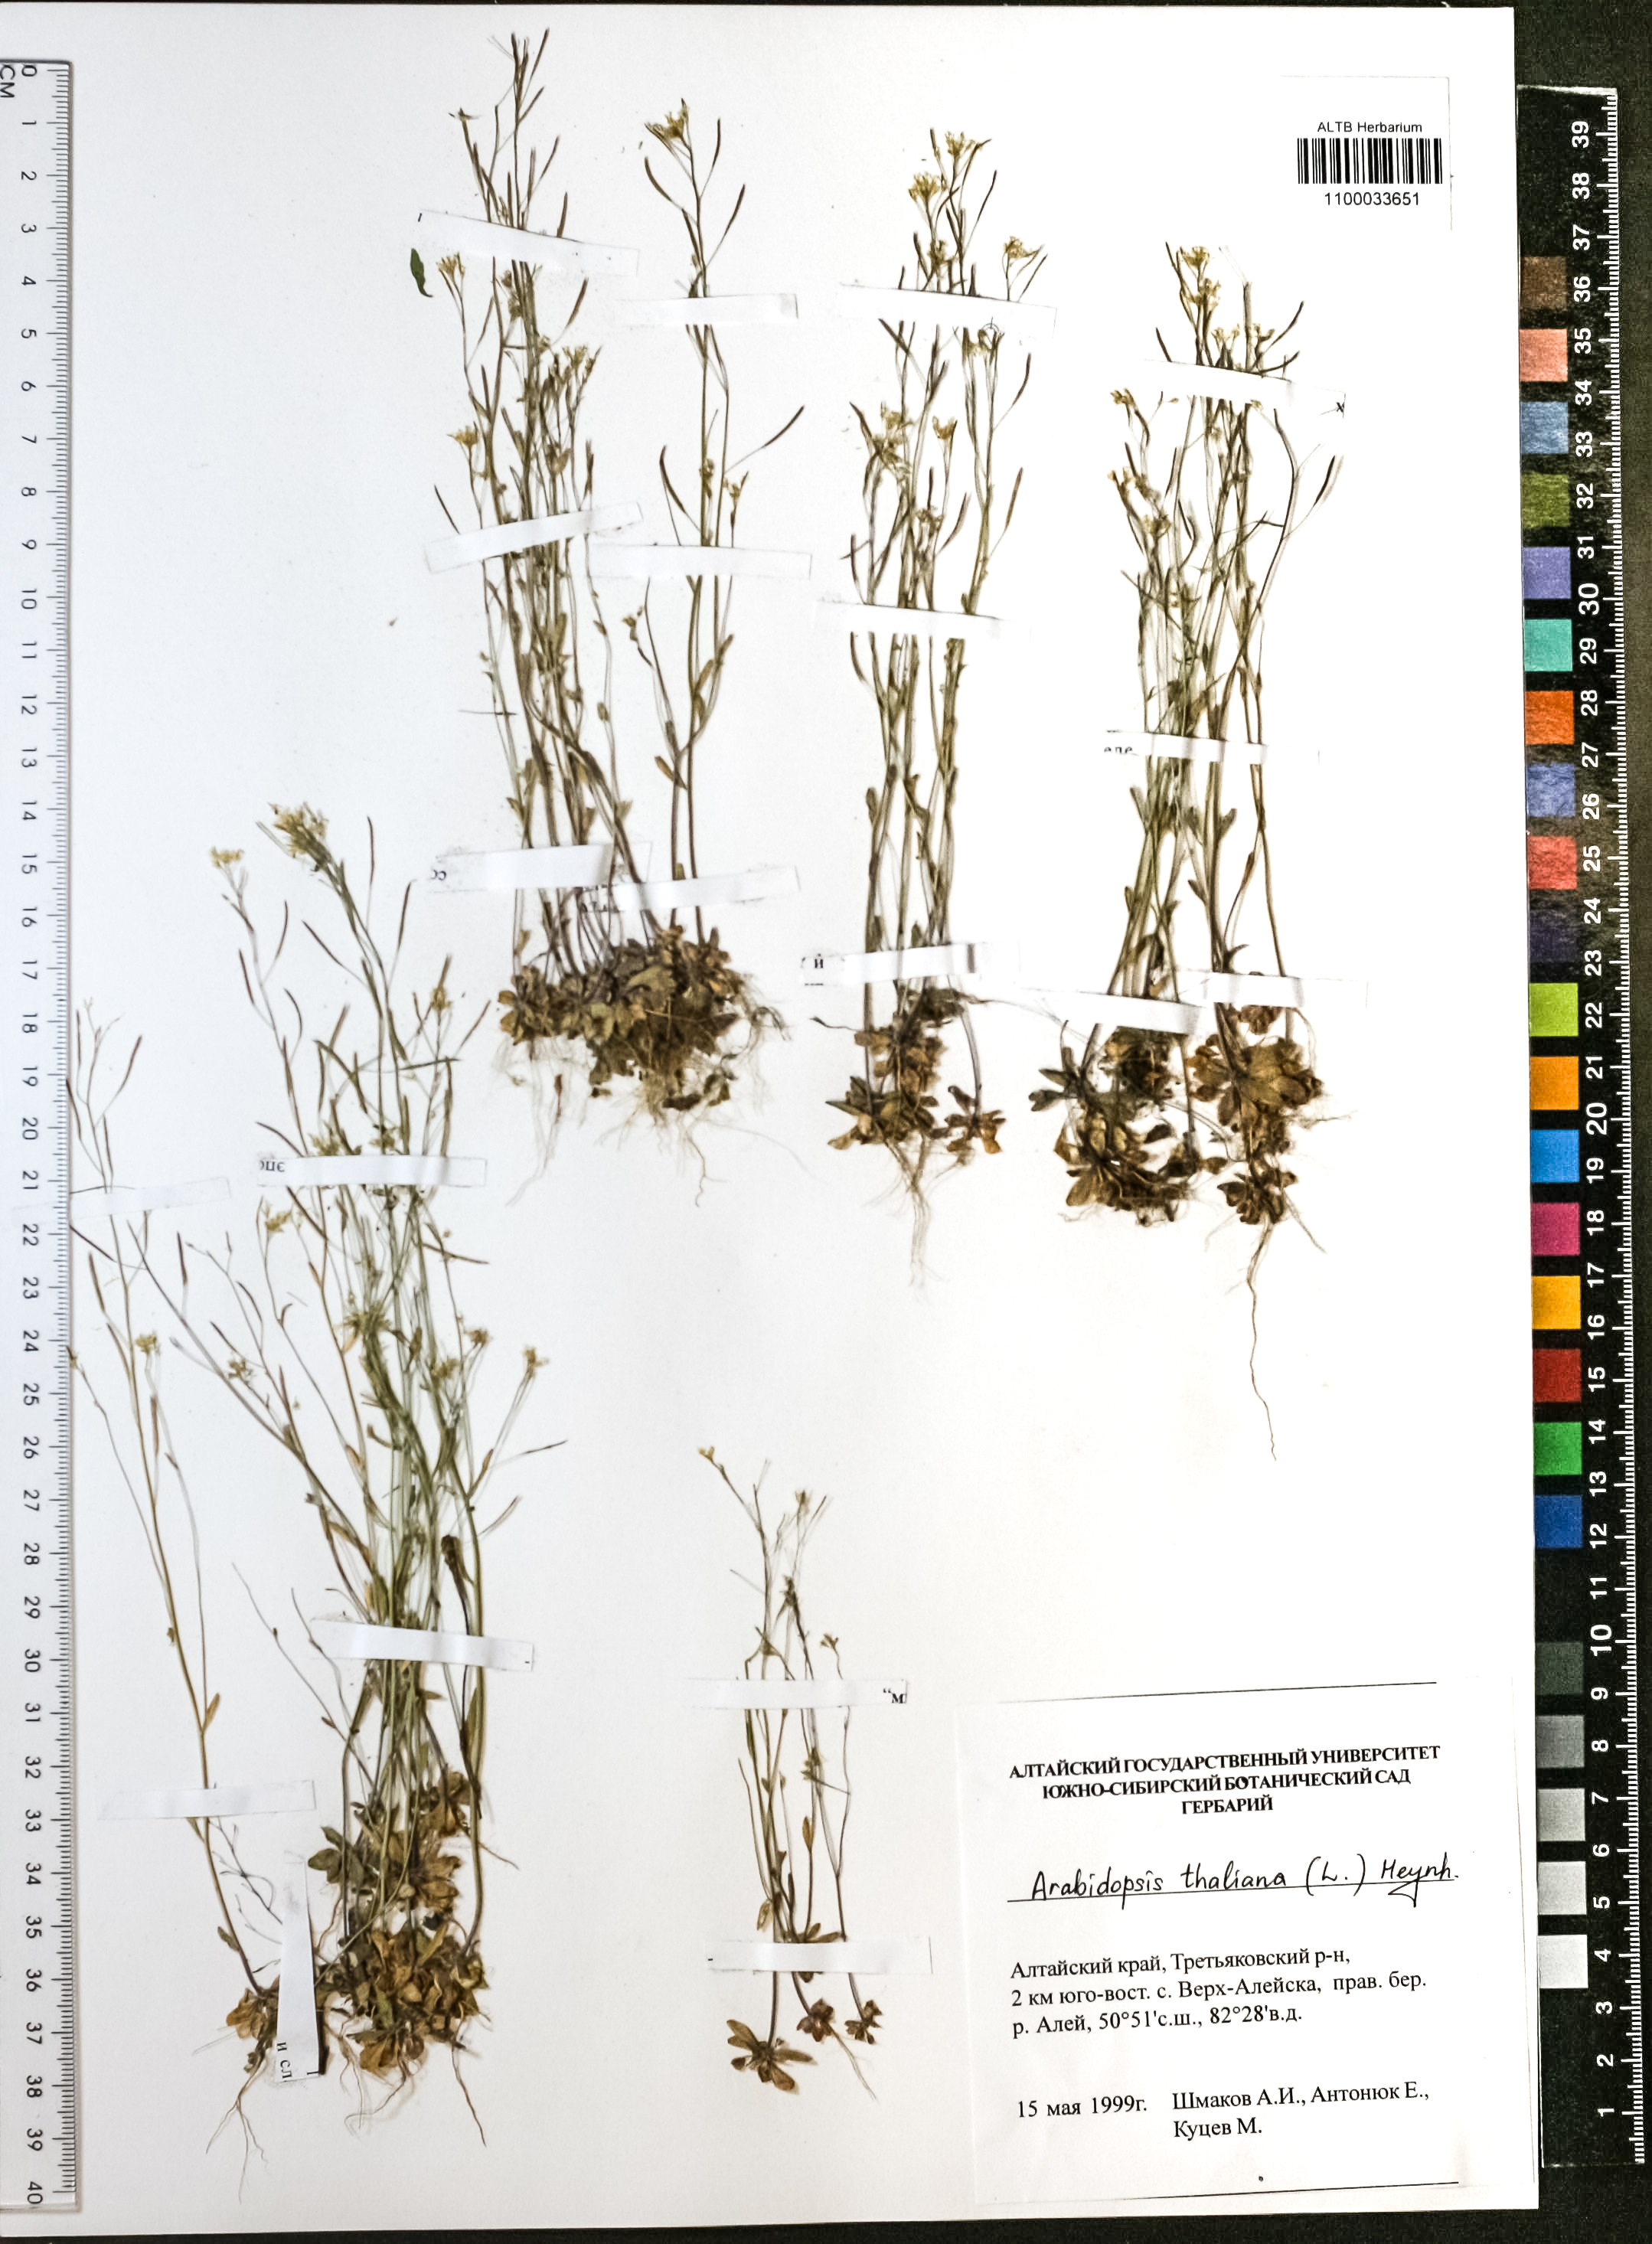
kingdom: Plantae
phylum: Tracheophyta
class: Magnoliopsida
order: Brassicales
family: Brassicaceae
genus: Arabidopsis
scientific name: Arabidopsis thaliana
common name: Thale cress
